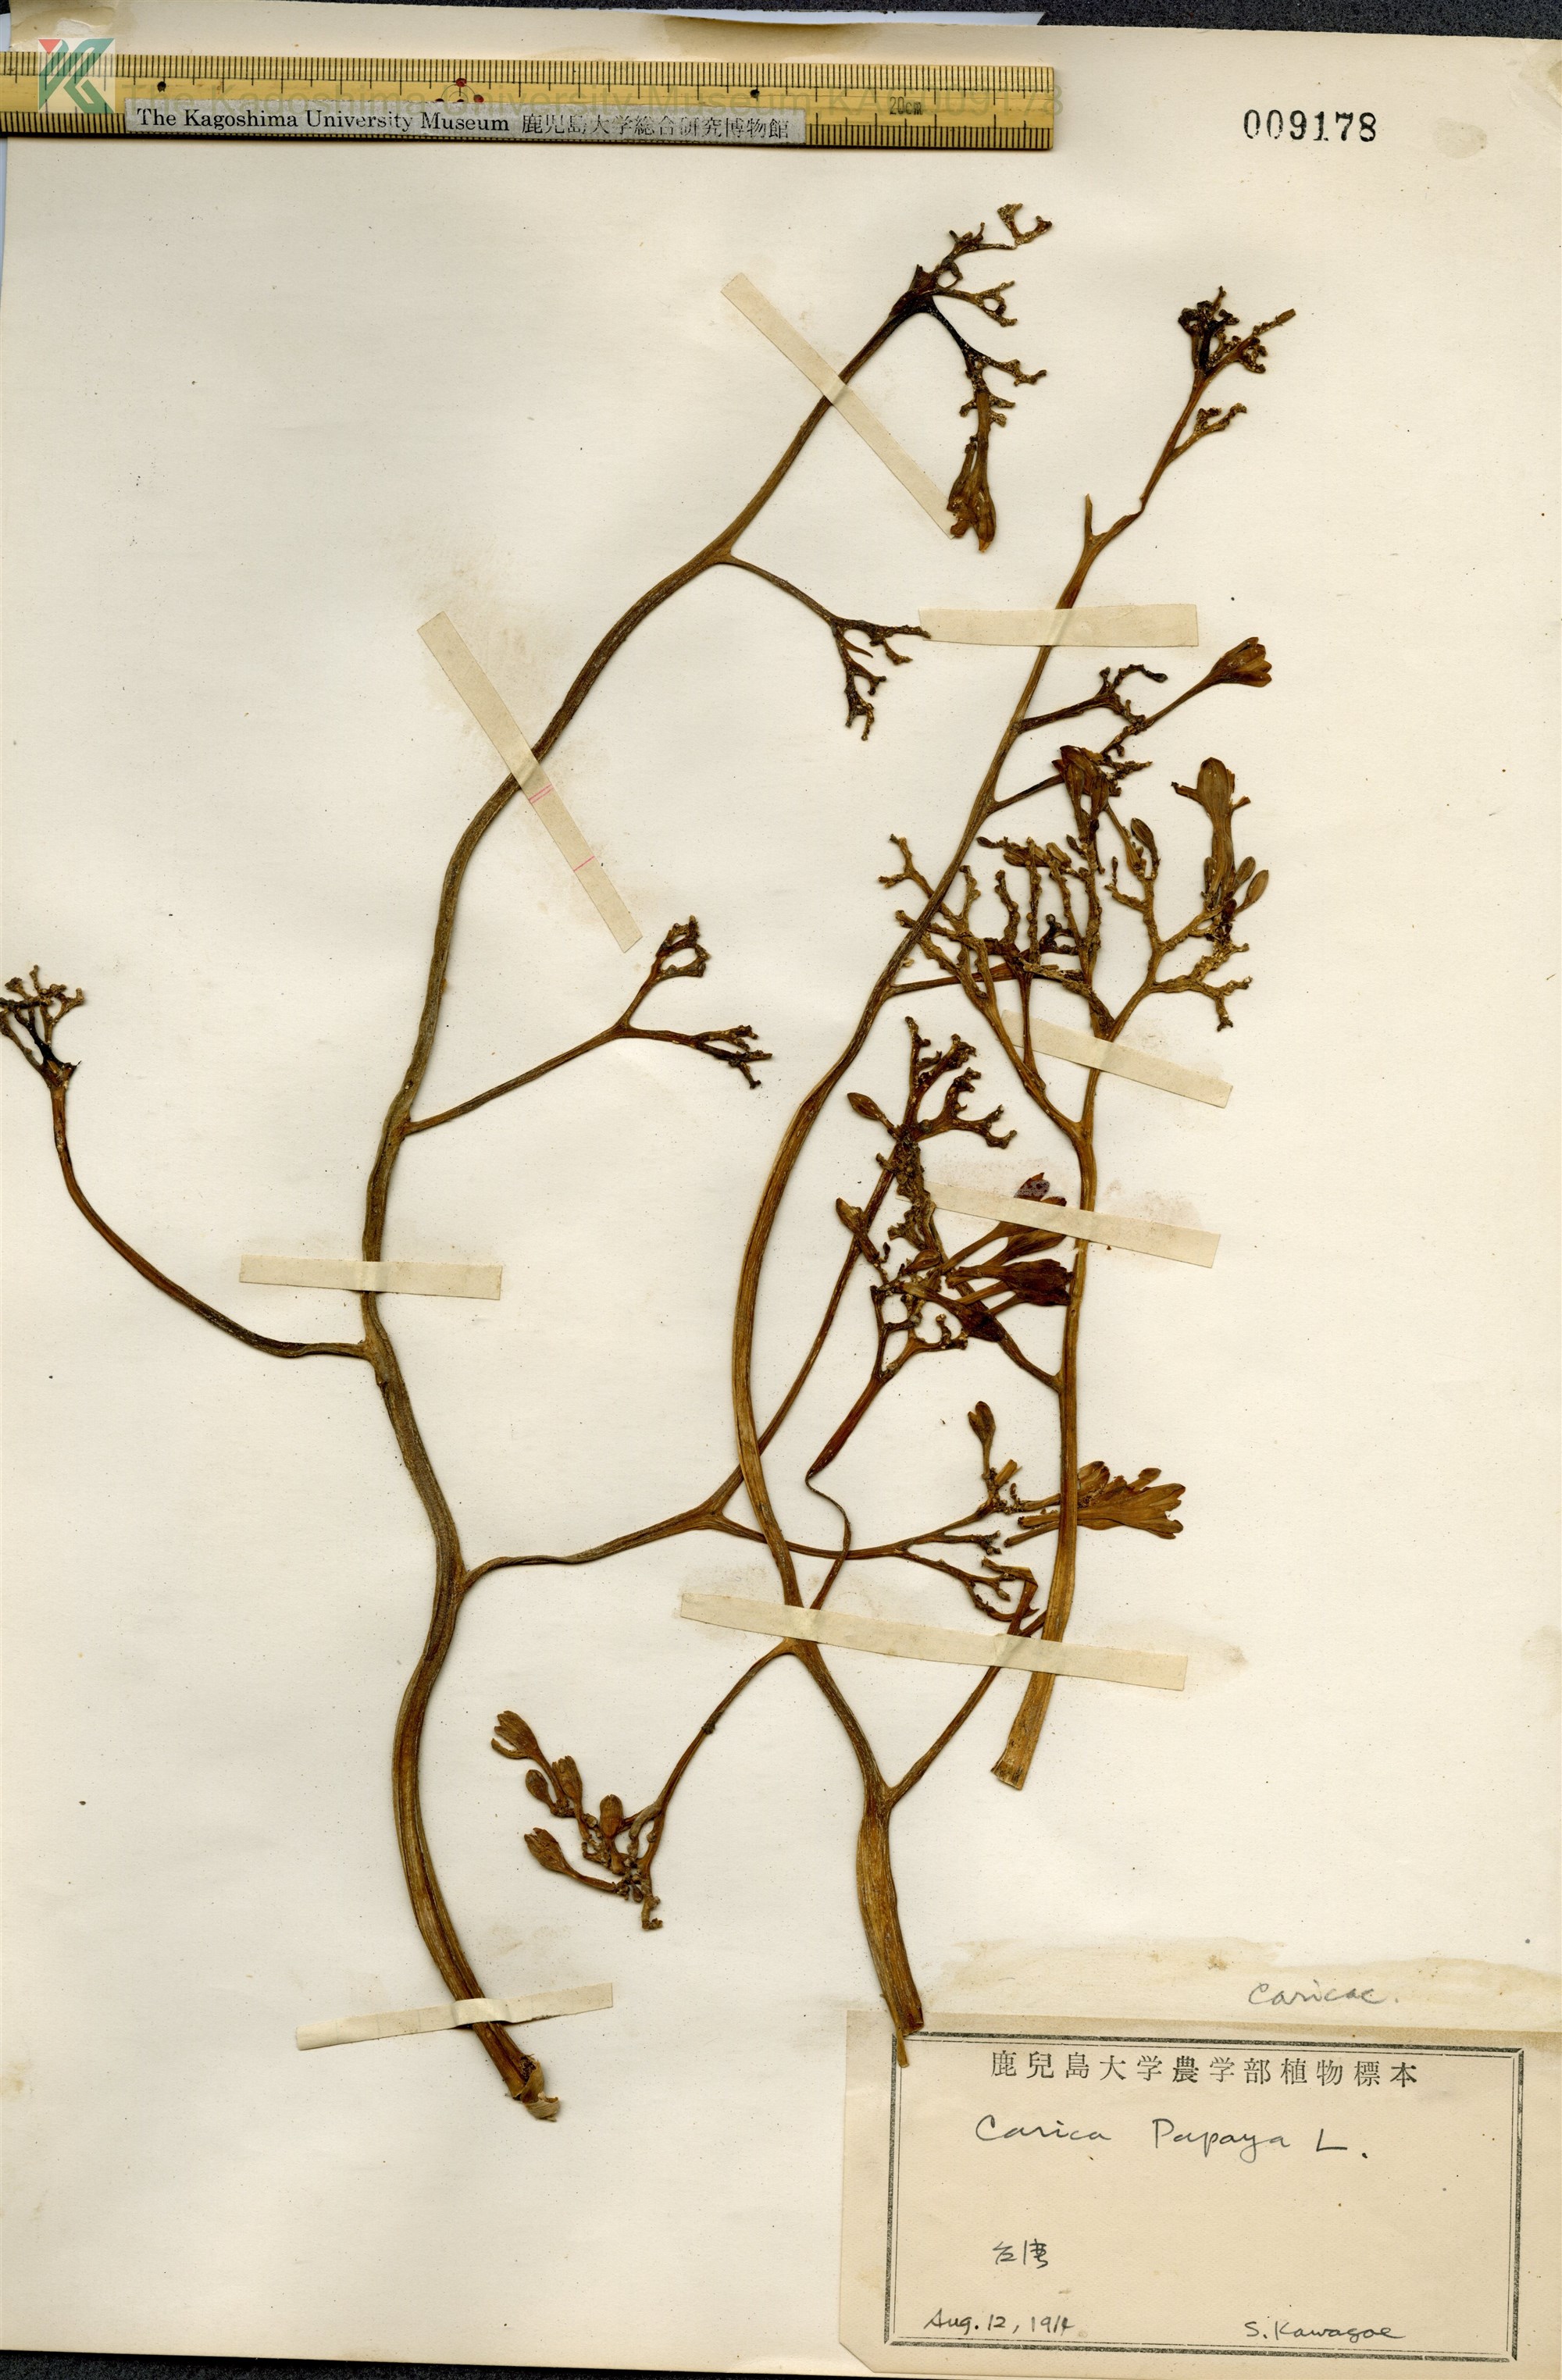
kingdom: Plantae
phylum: Tracheophyta
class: Magnoliopsida
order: Brassicales
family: Caricaceae
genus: Carica
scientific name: Carica papaya
